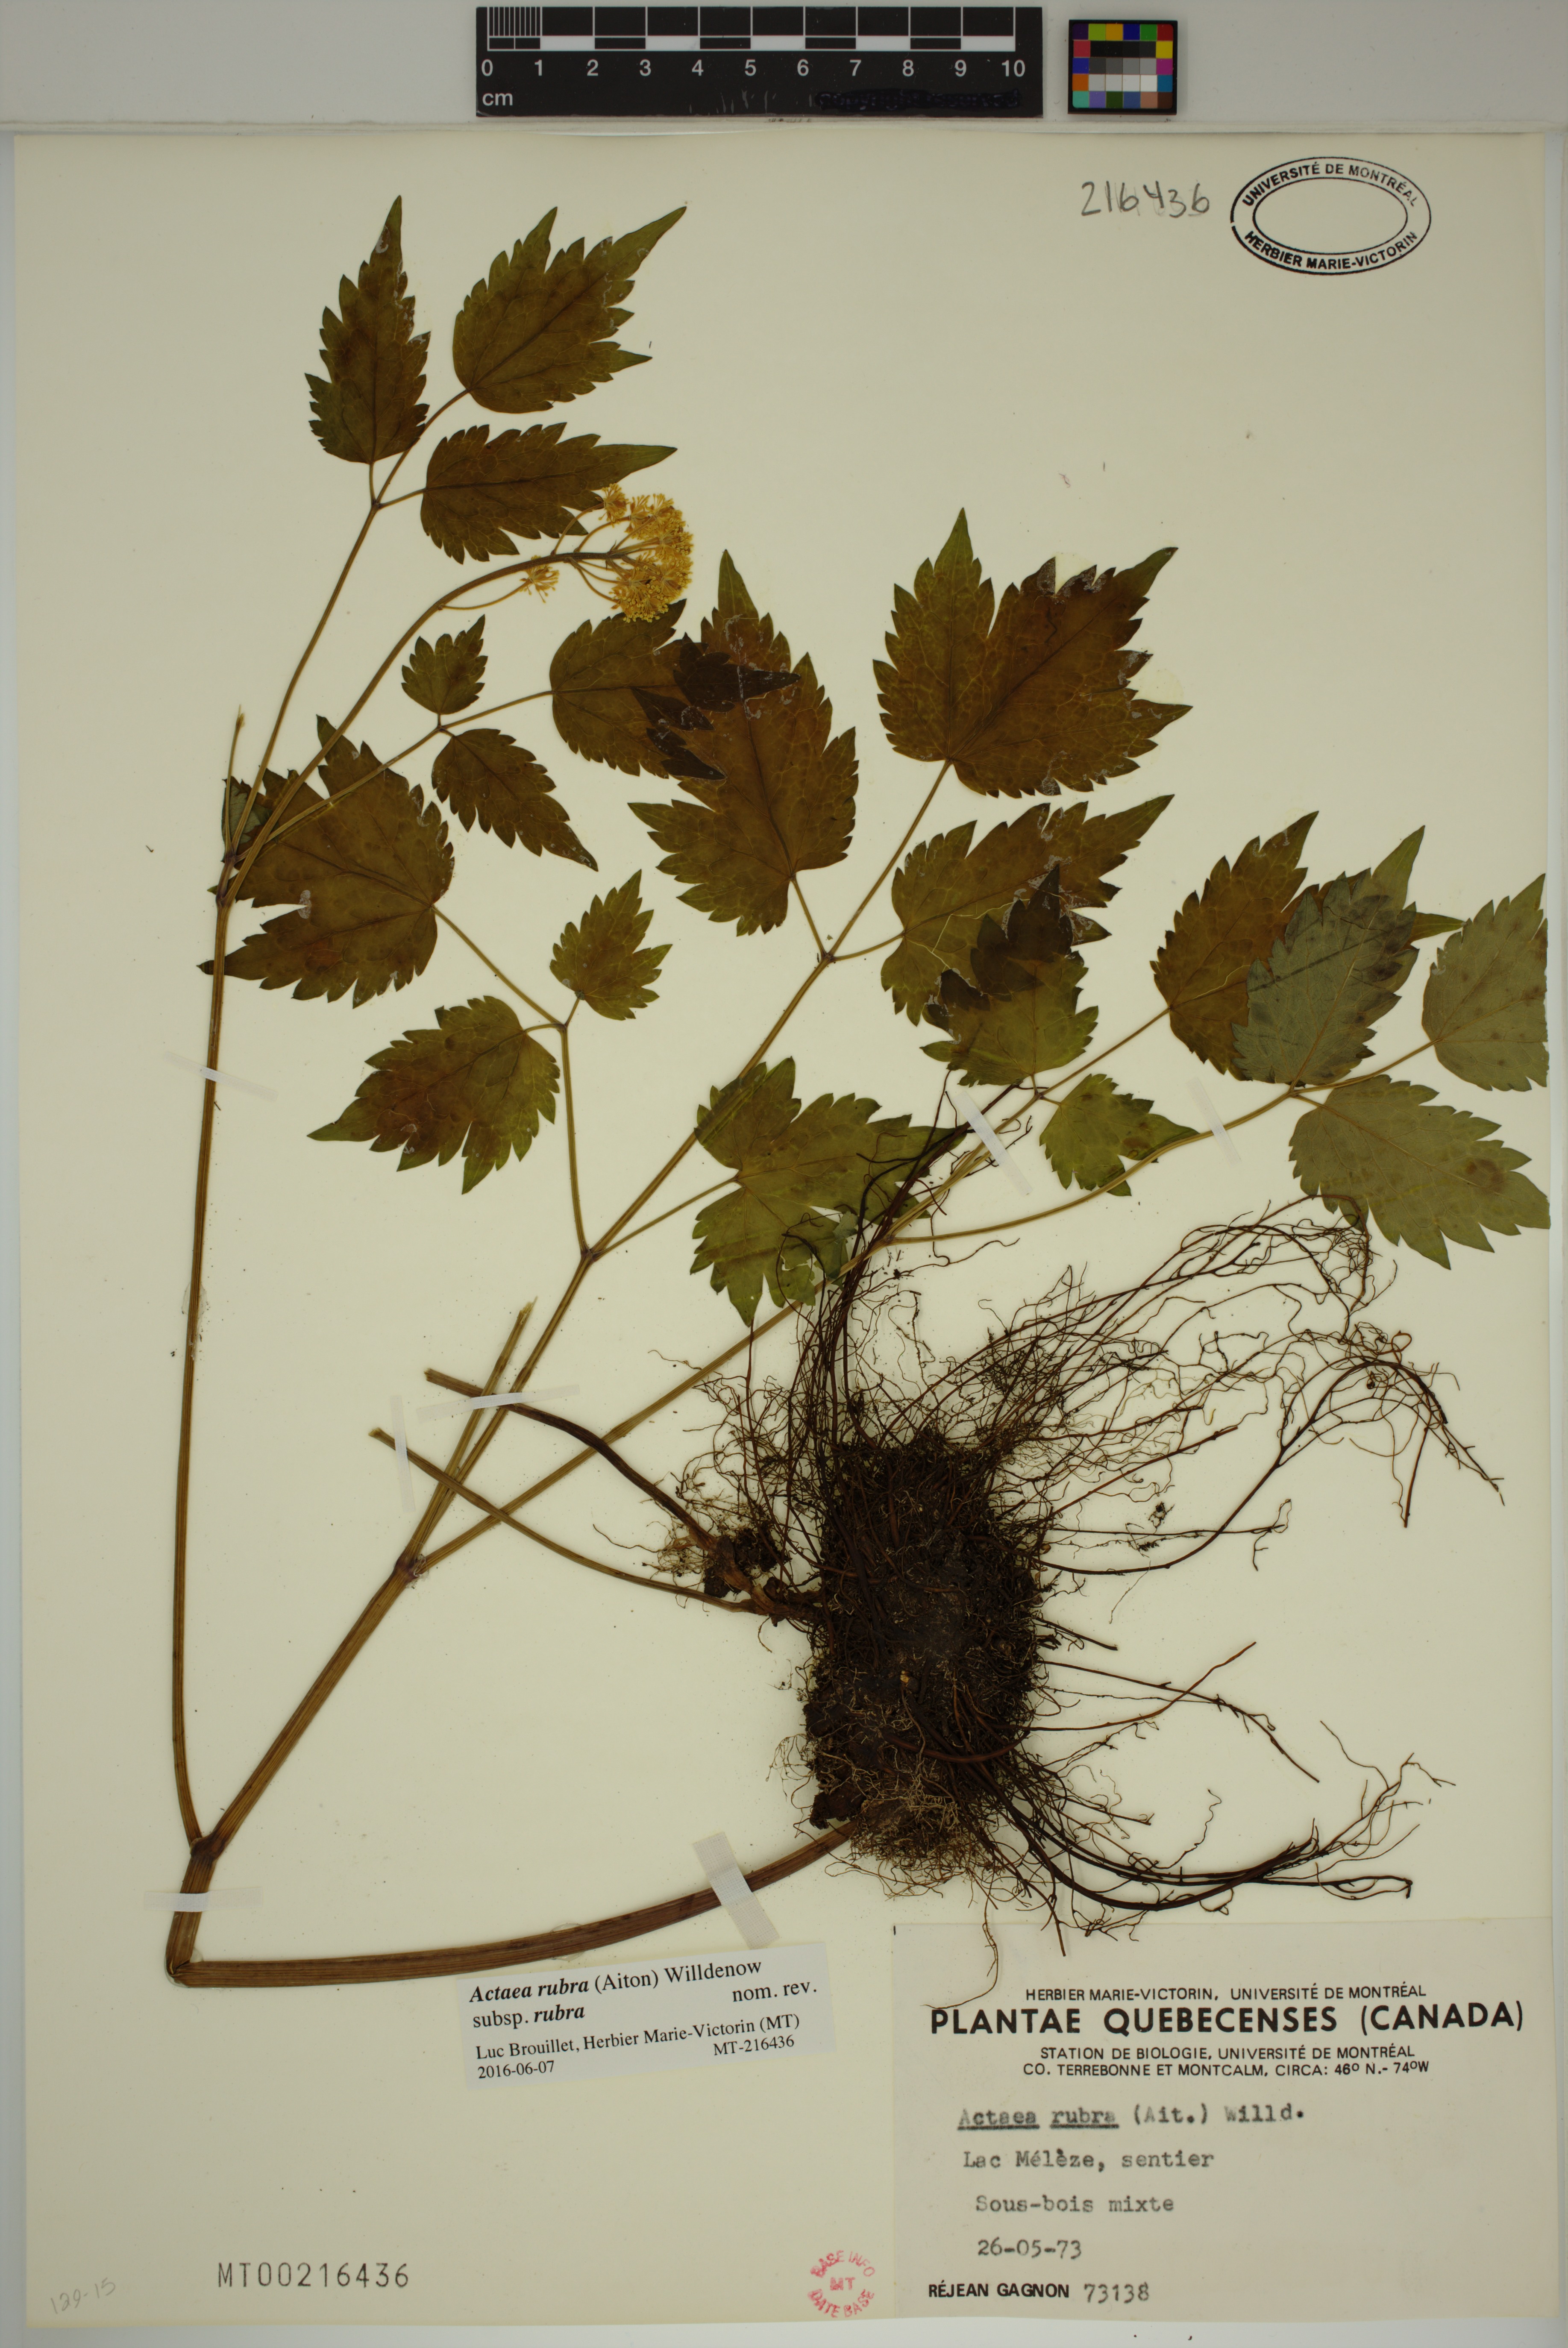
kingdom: Plantae
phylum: Tracheophyta
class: Magnoliopsida
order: Ranunculales
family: Ranunculaceae
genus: Actaea
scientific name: Actaea rubra
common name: Red baneberry
